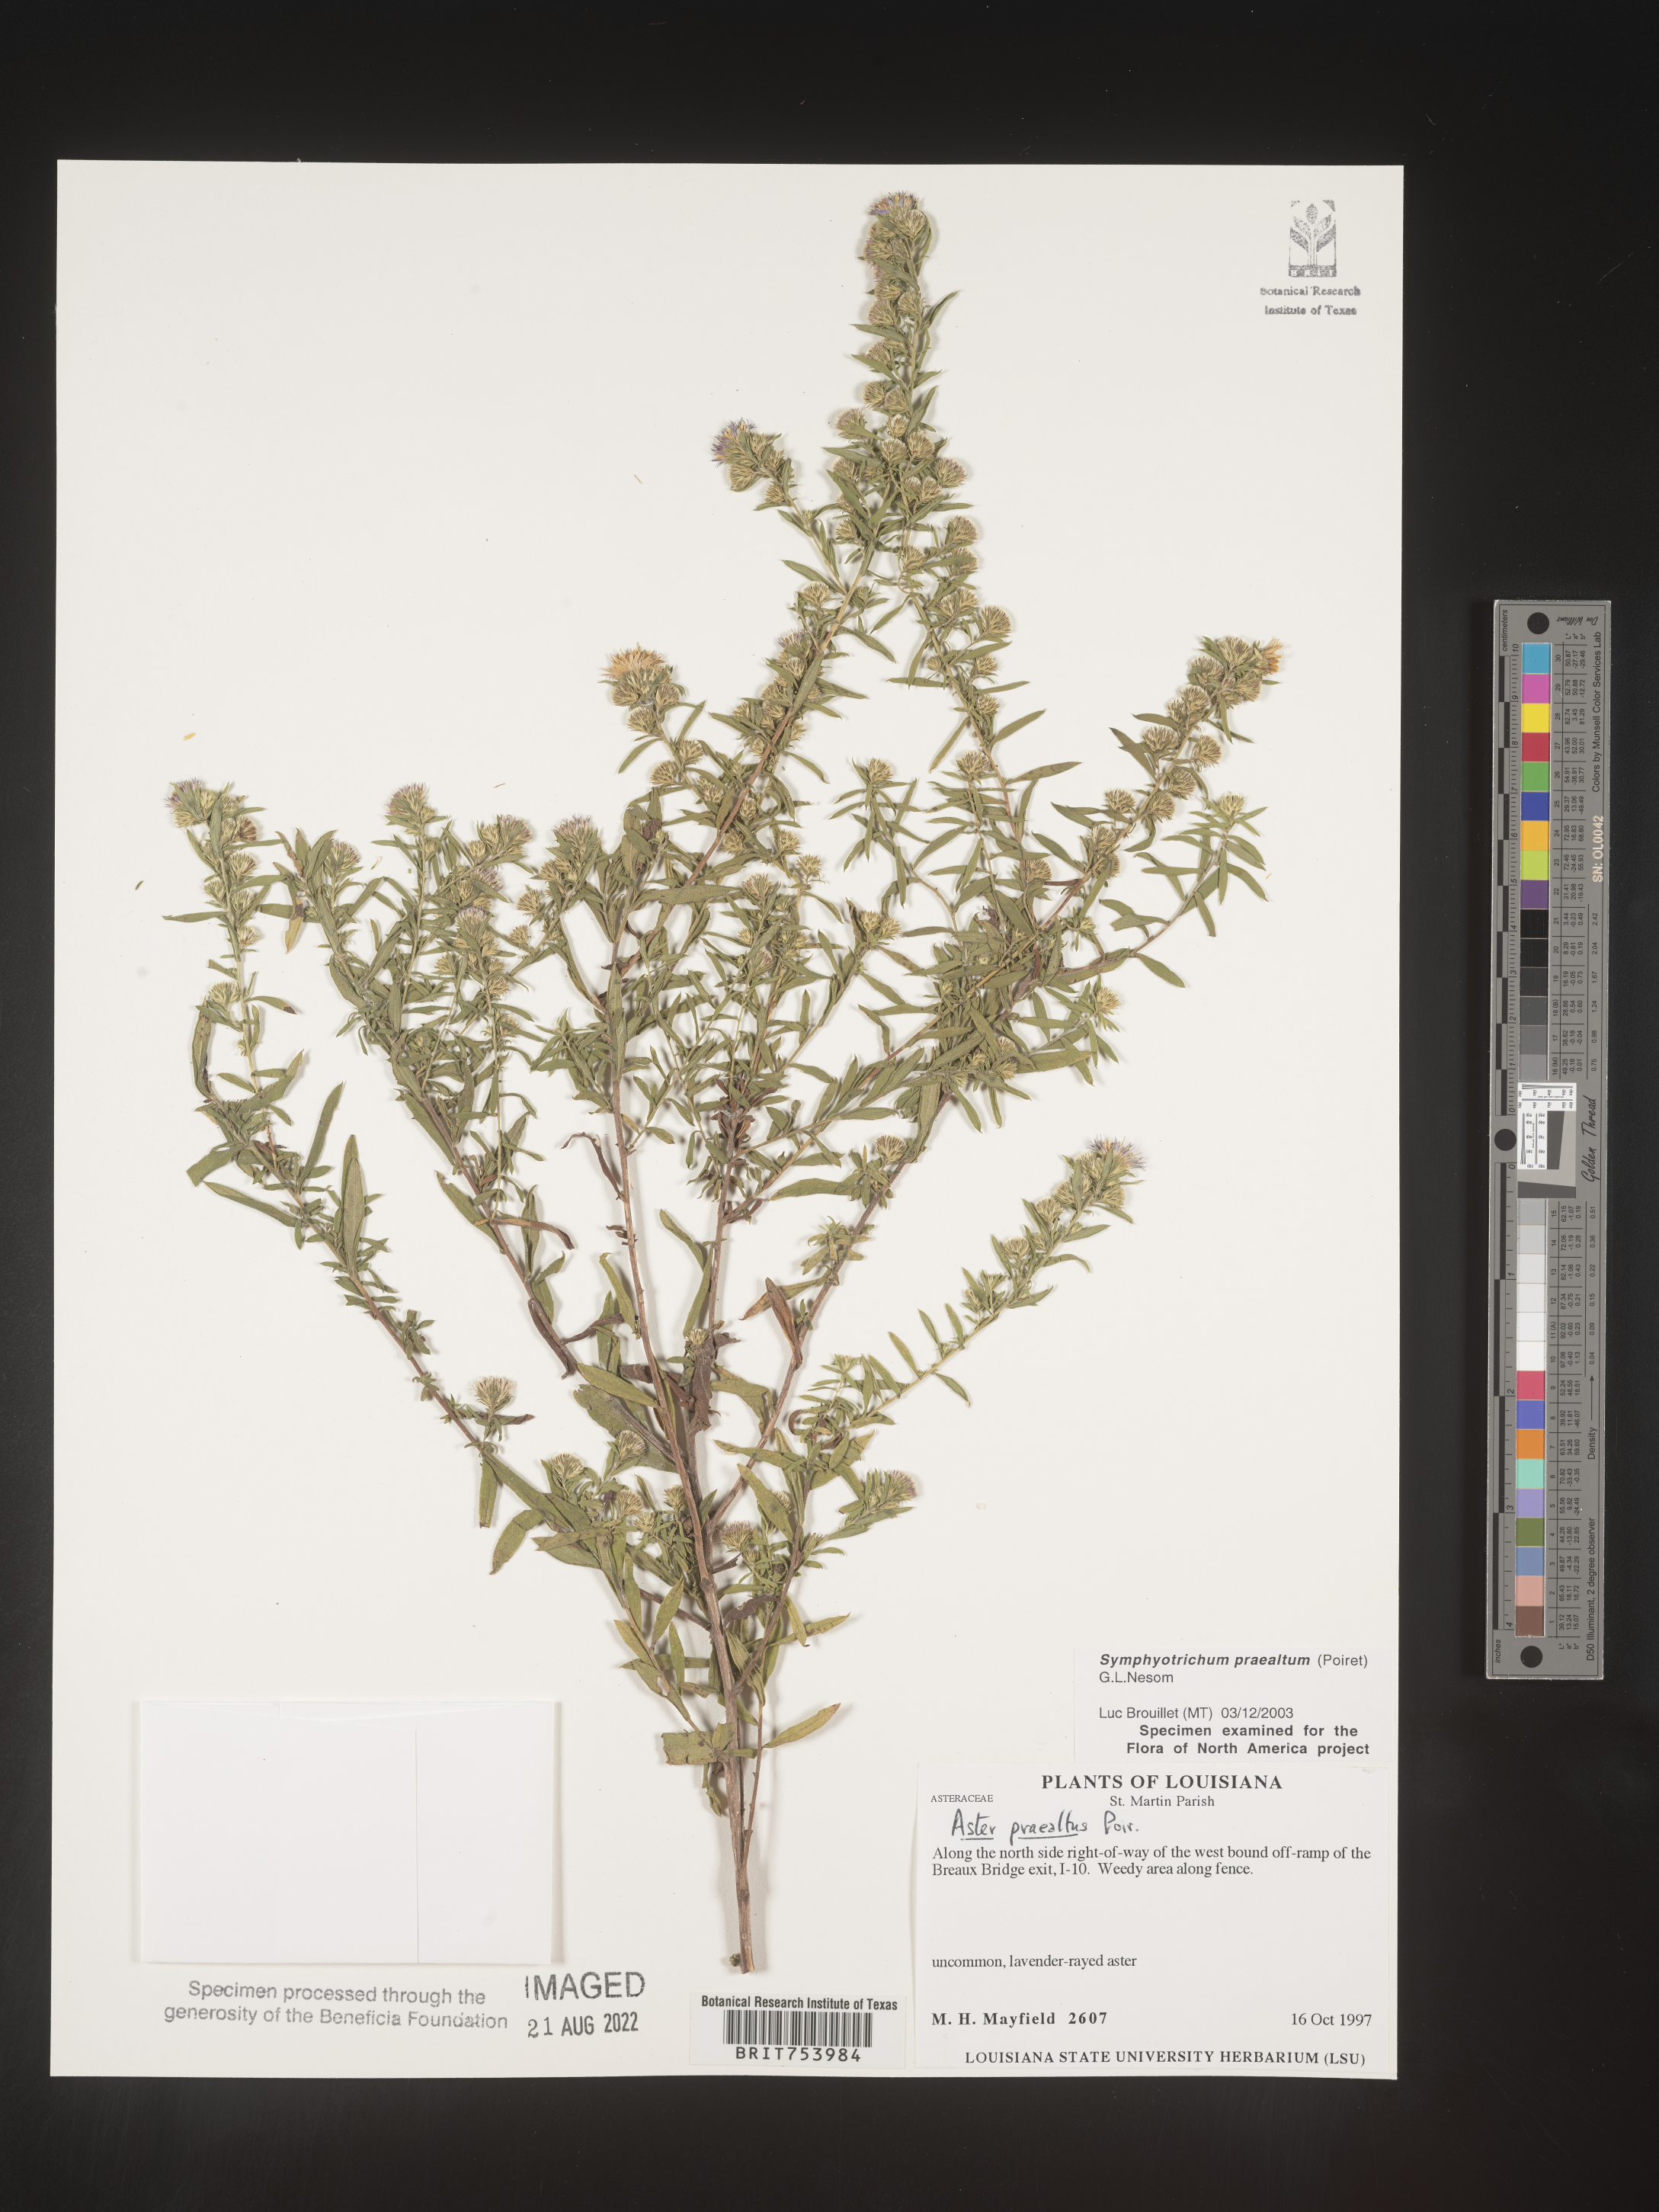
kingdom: Plantae
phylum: Tracheophyta
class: Magnoliopsida
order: Asterales
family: Asteraceae
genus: Symphyotrichum
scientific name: Symphyotrichum praealtum
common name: Willow aster
